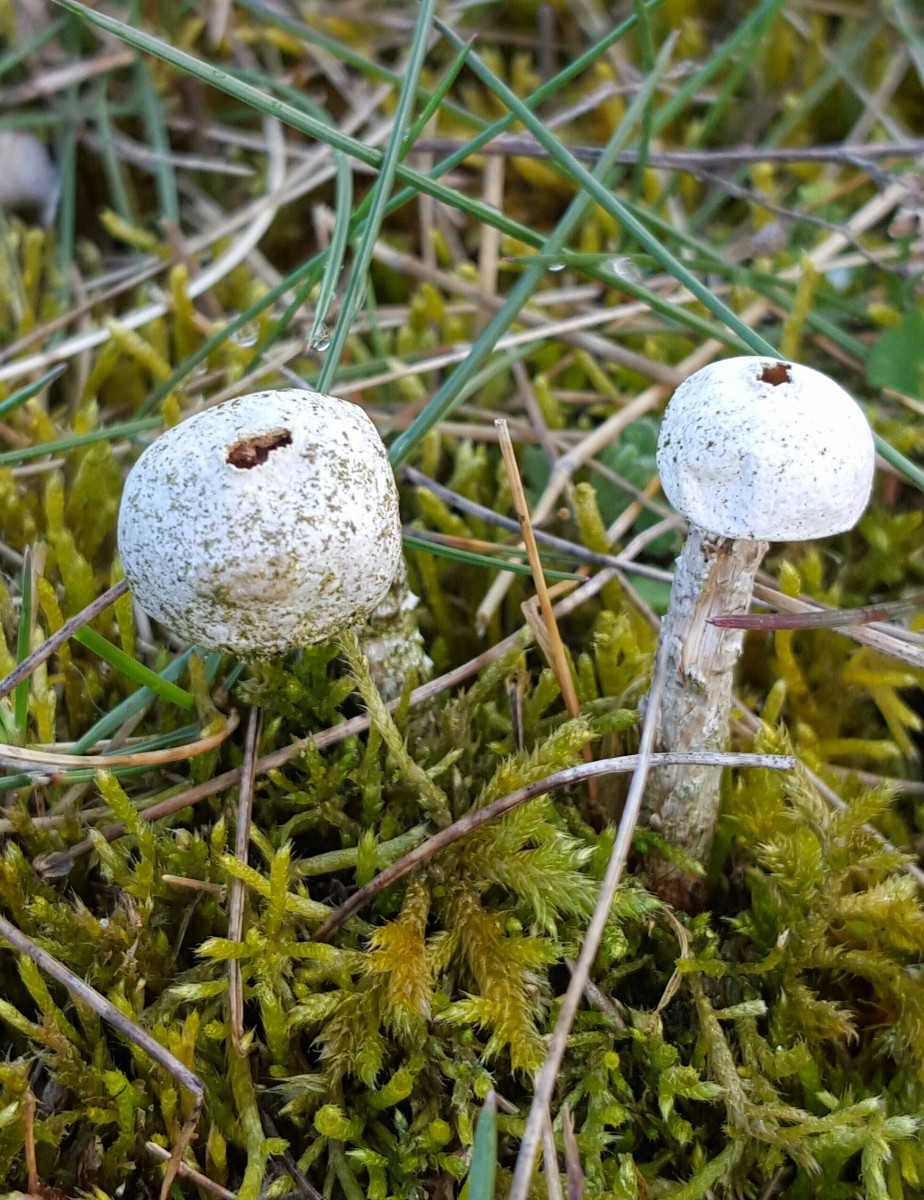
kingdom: Fungi
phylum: Basidiomycota
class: Agaricomycetes
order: Agaricales
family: Agaricaceae
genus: Tulostoma
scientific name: Tulostoma brumale
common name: vinter-stilkbovist
